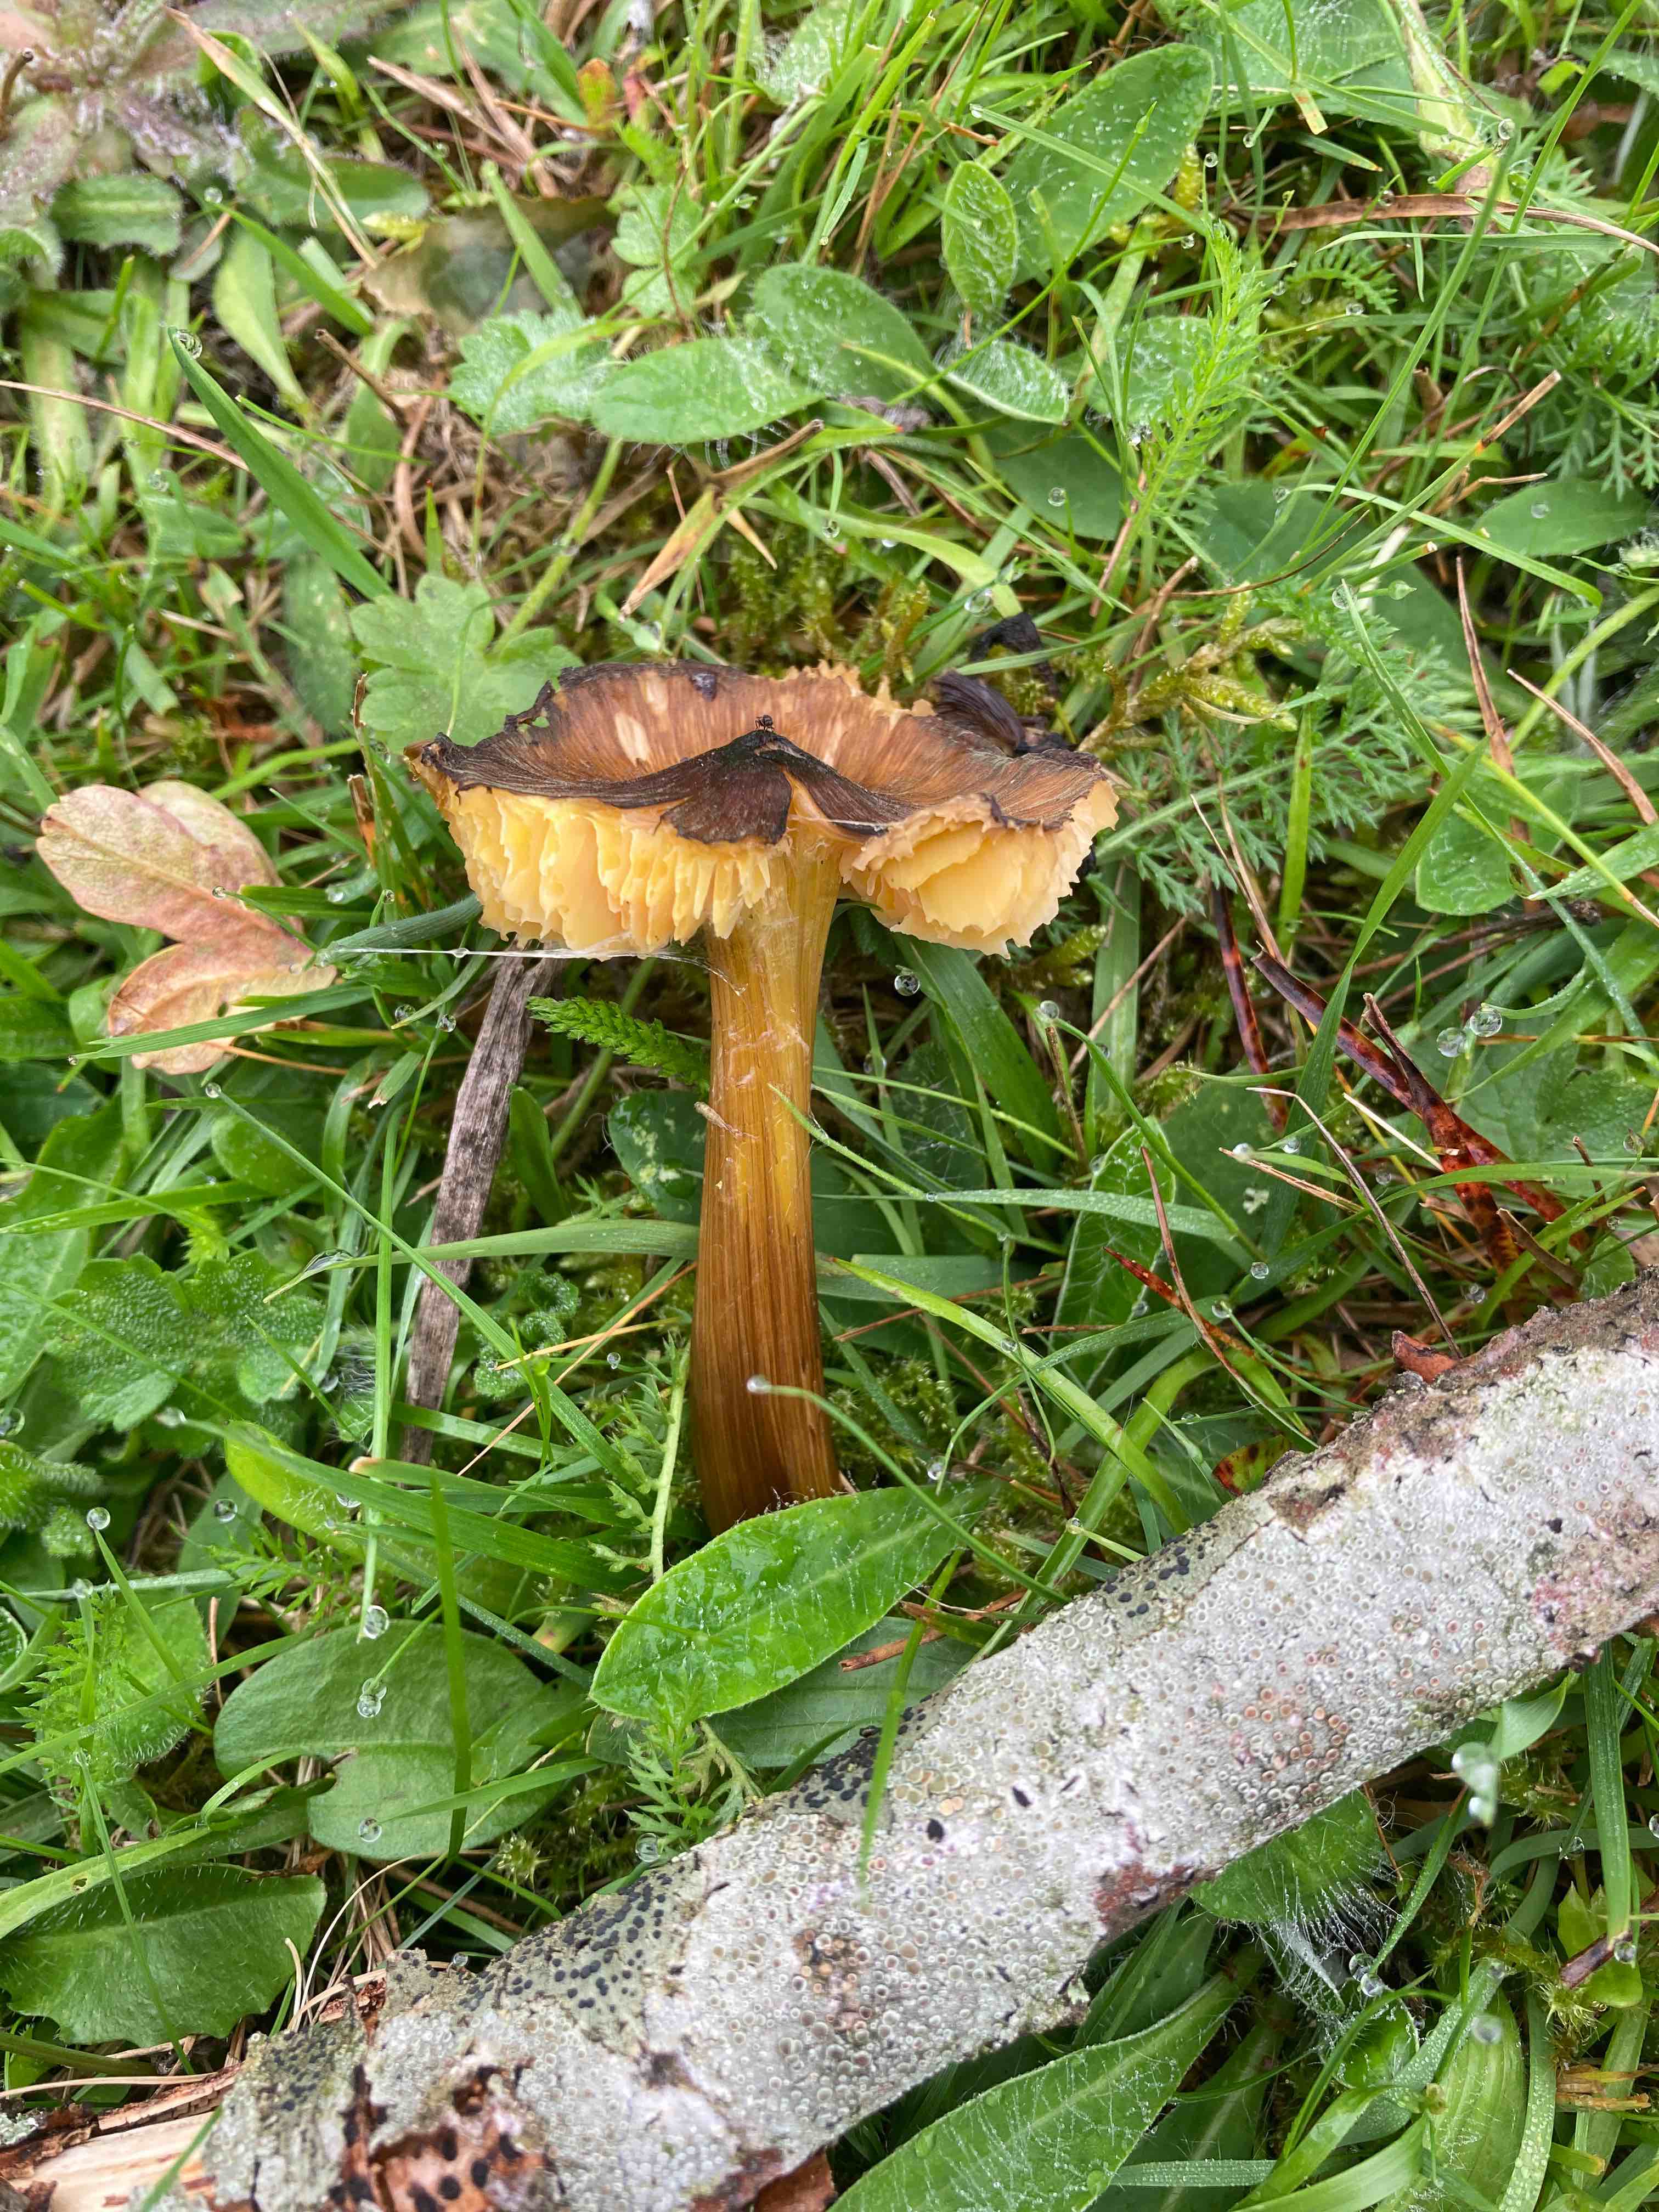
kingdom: Fungi
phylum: Basidiomycota
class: Agaricomycetes
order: Agaricales
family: Hygrophoraceae
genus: Hygrocybe
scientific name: Hygrocybe spadicea
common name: daddelbrun vokshat
